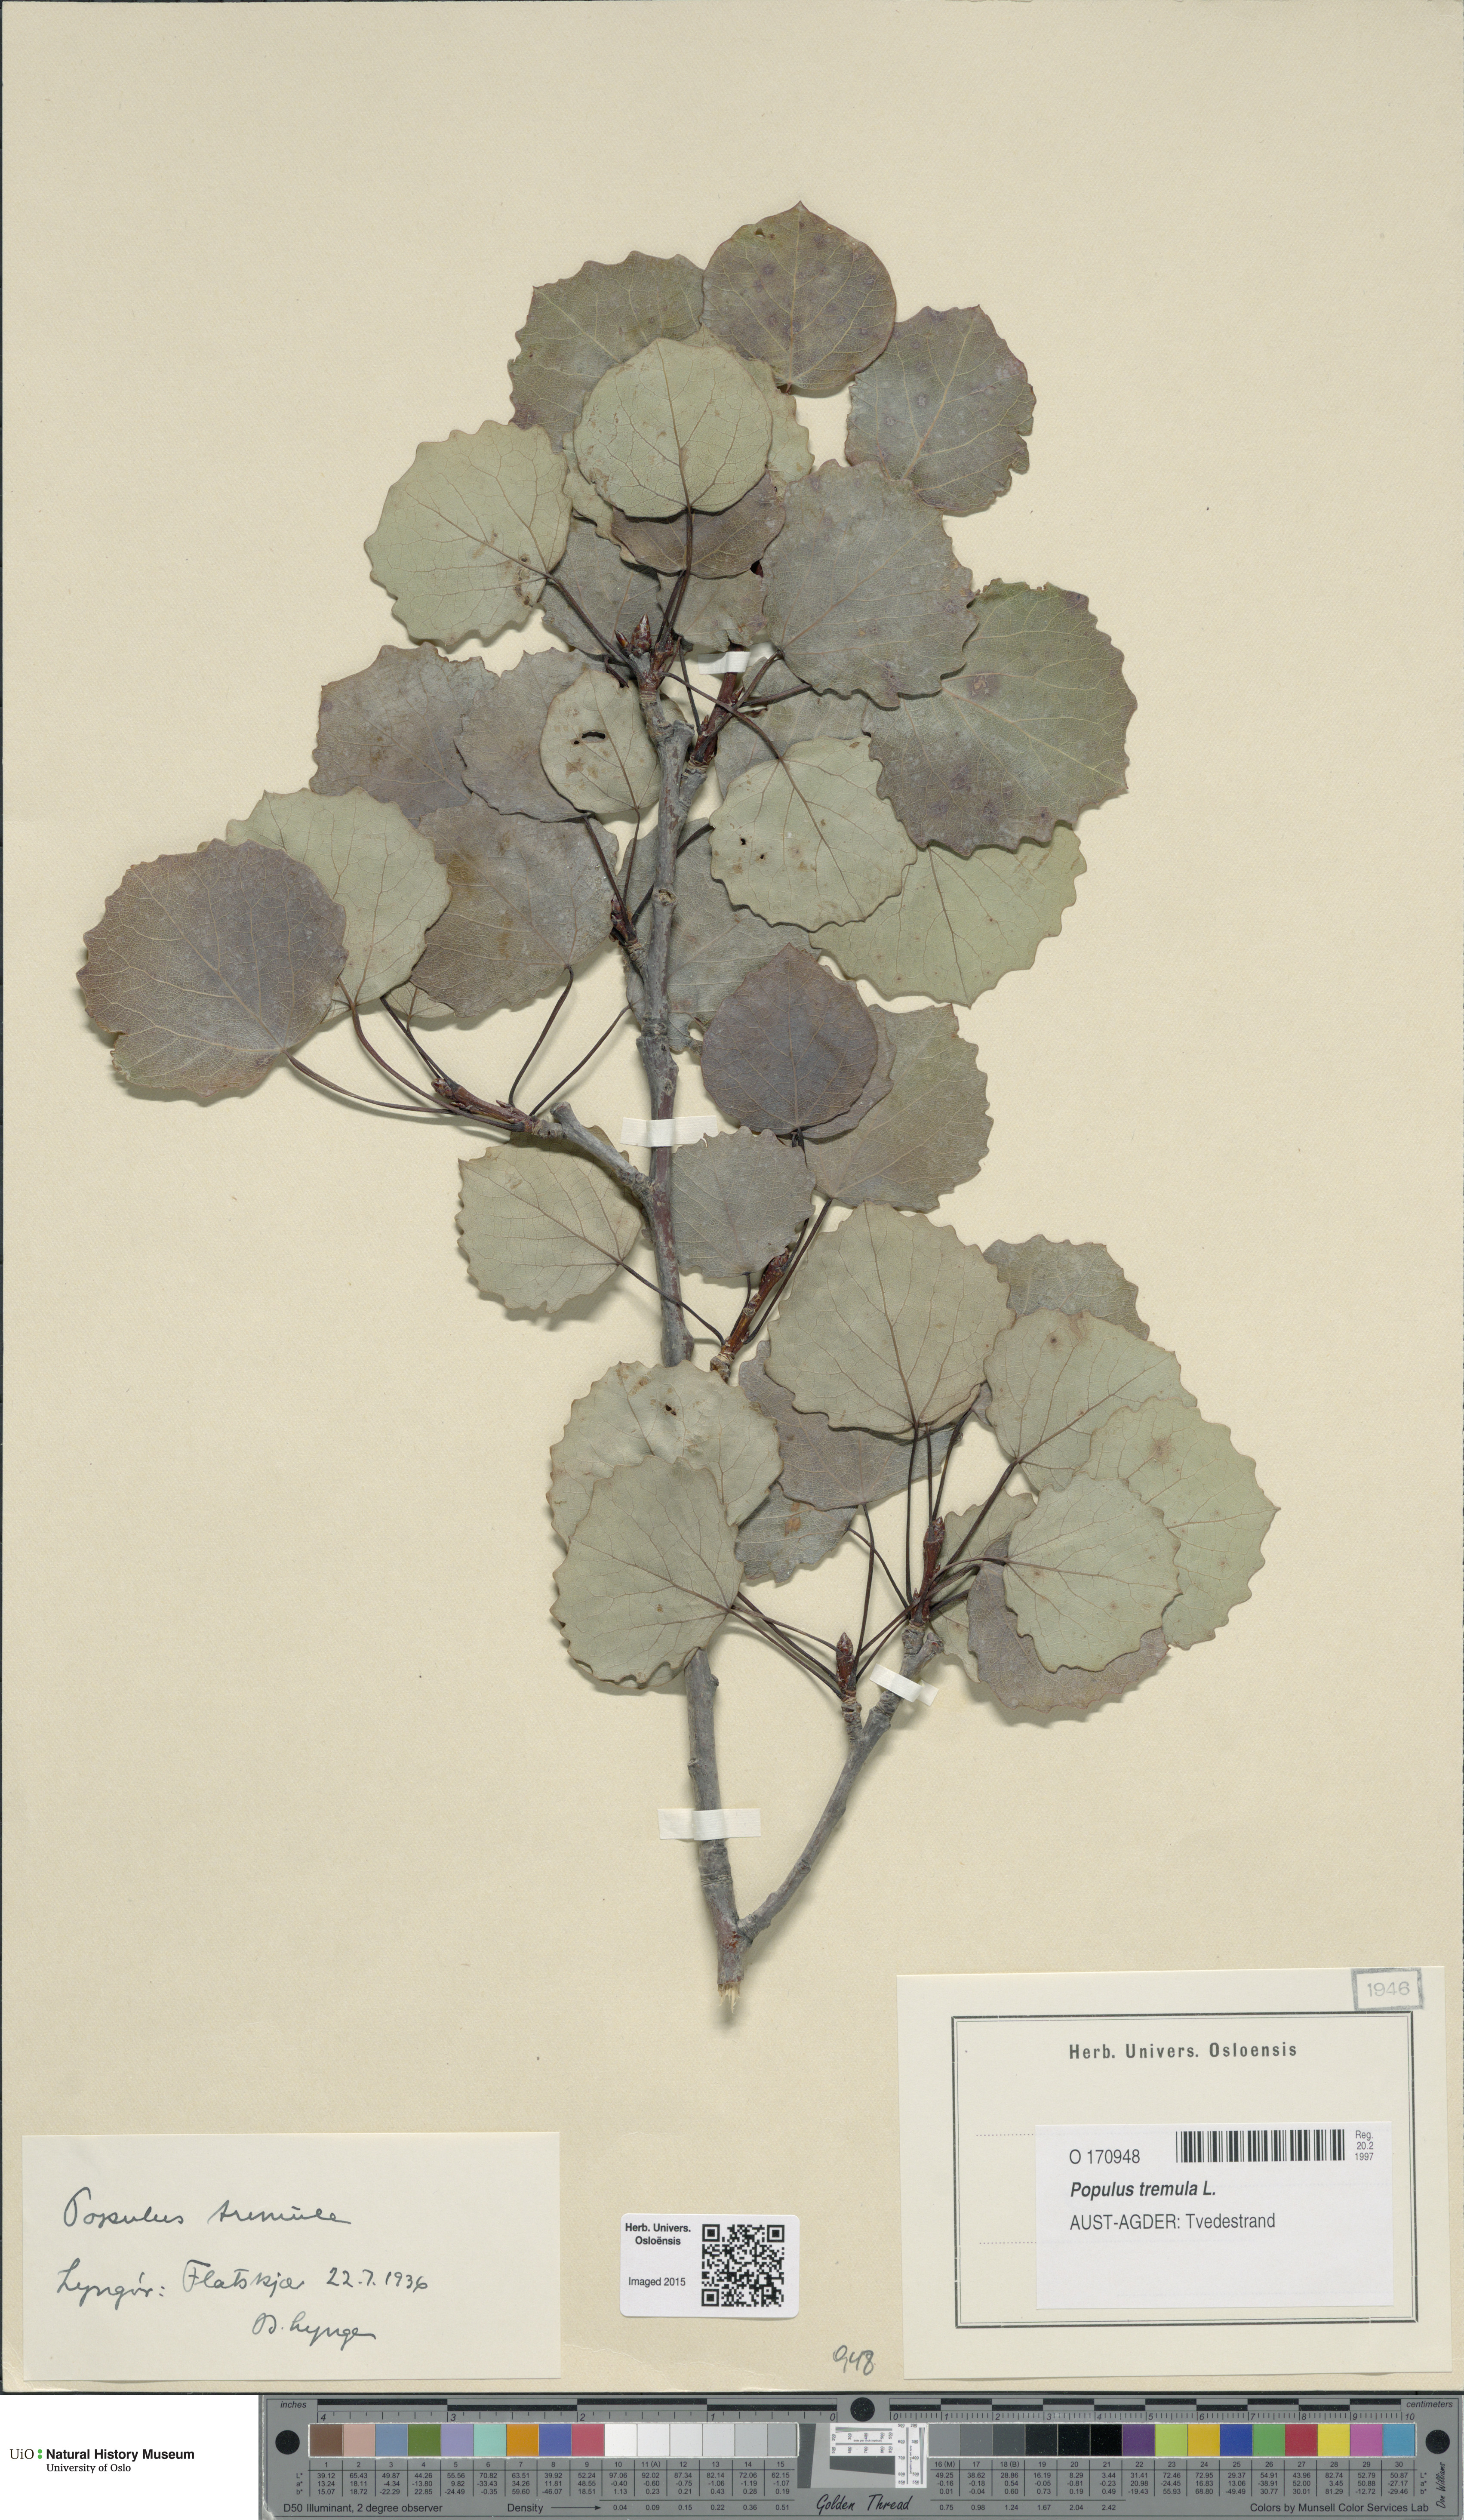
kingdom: Plantae
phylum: Tracheophyta
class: Magnoliopsida
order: Malpighiales
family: Salicaceae
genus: Populus
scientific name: Populus tremula
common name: European aspen
